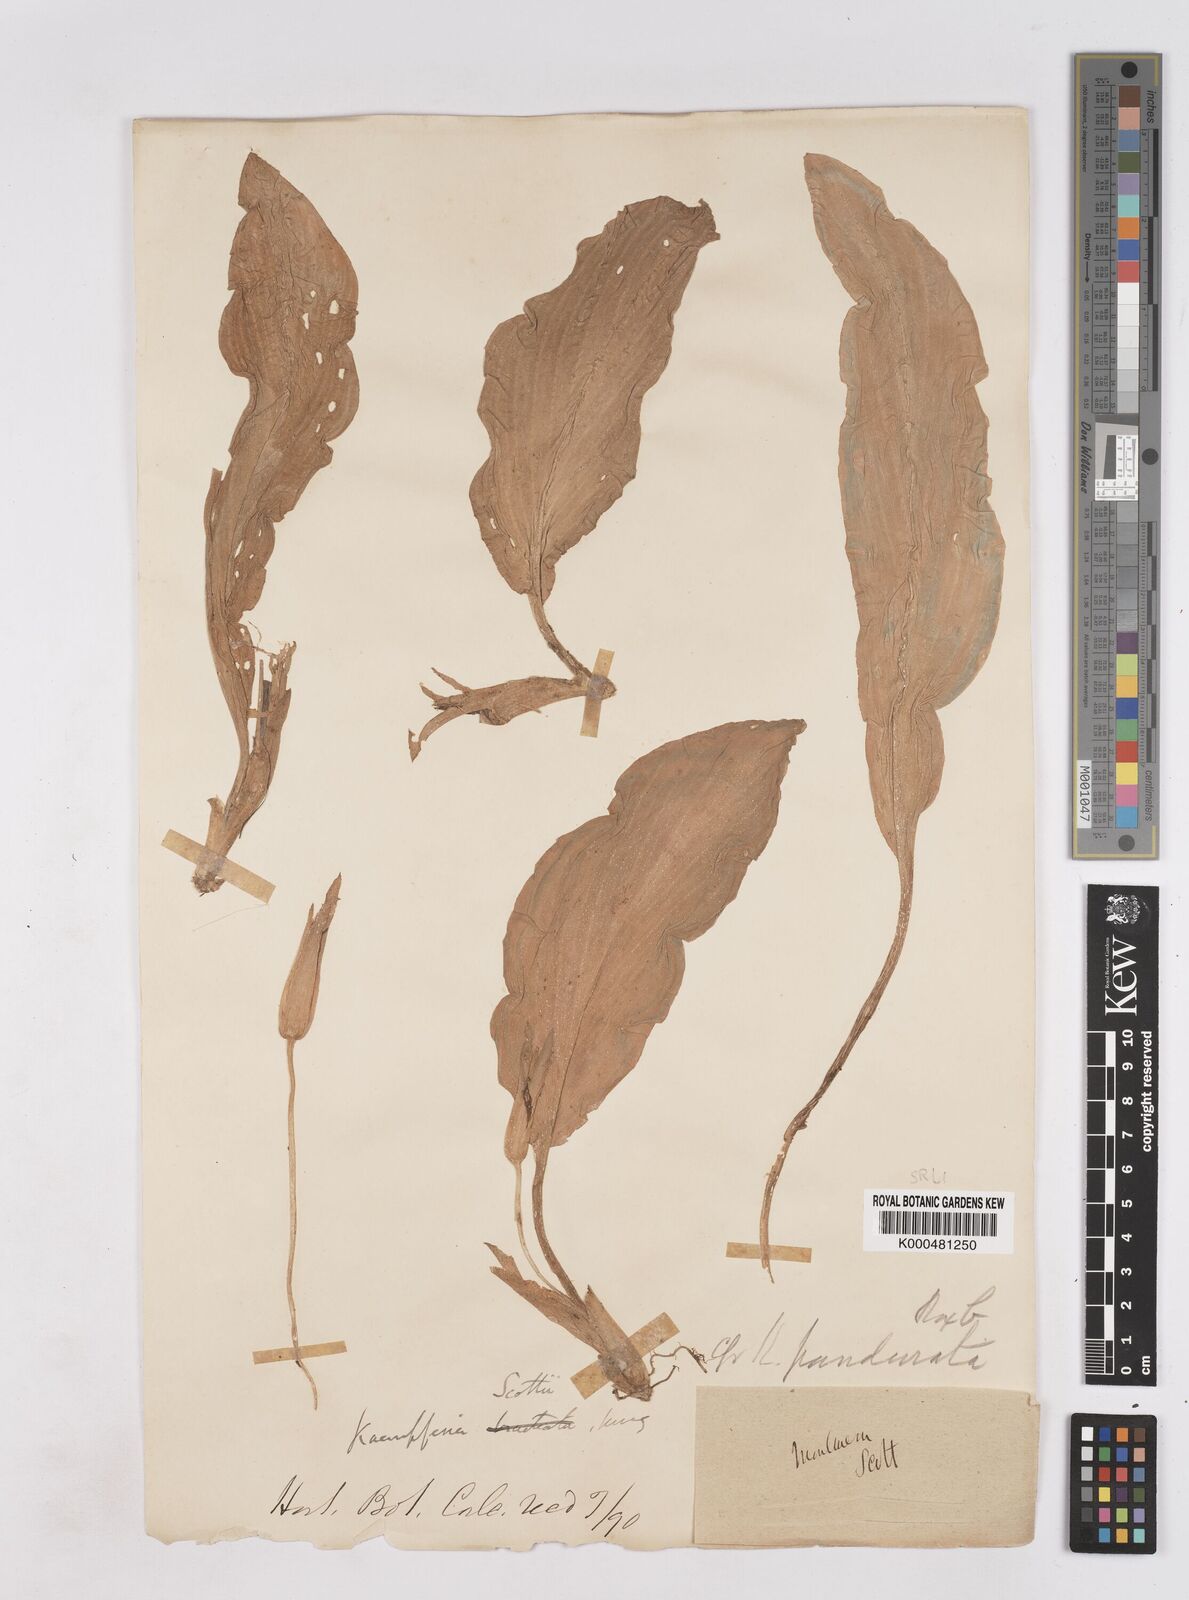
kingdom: Plantae
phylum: Tracheophyta
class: Liliopsida
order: Zingiberales
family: Zingiberaceae
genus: Boesenbergia
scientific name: Boesenbergia rotunda
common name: Chinese ginger
